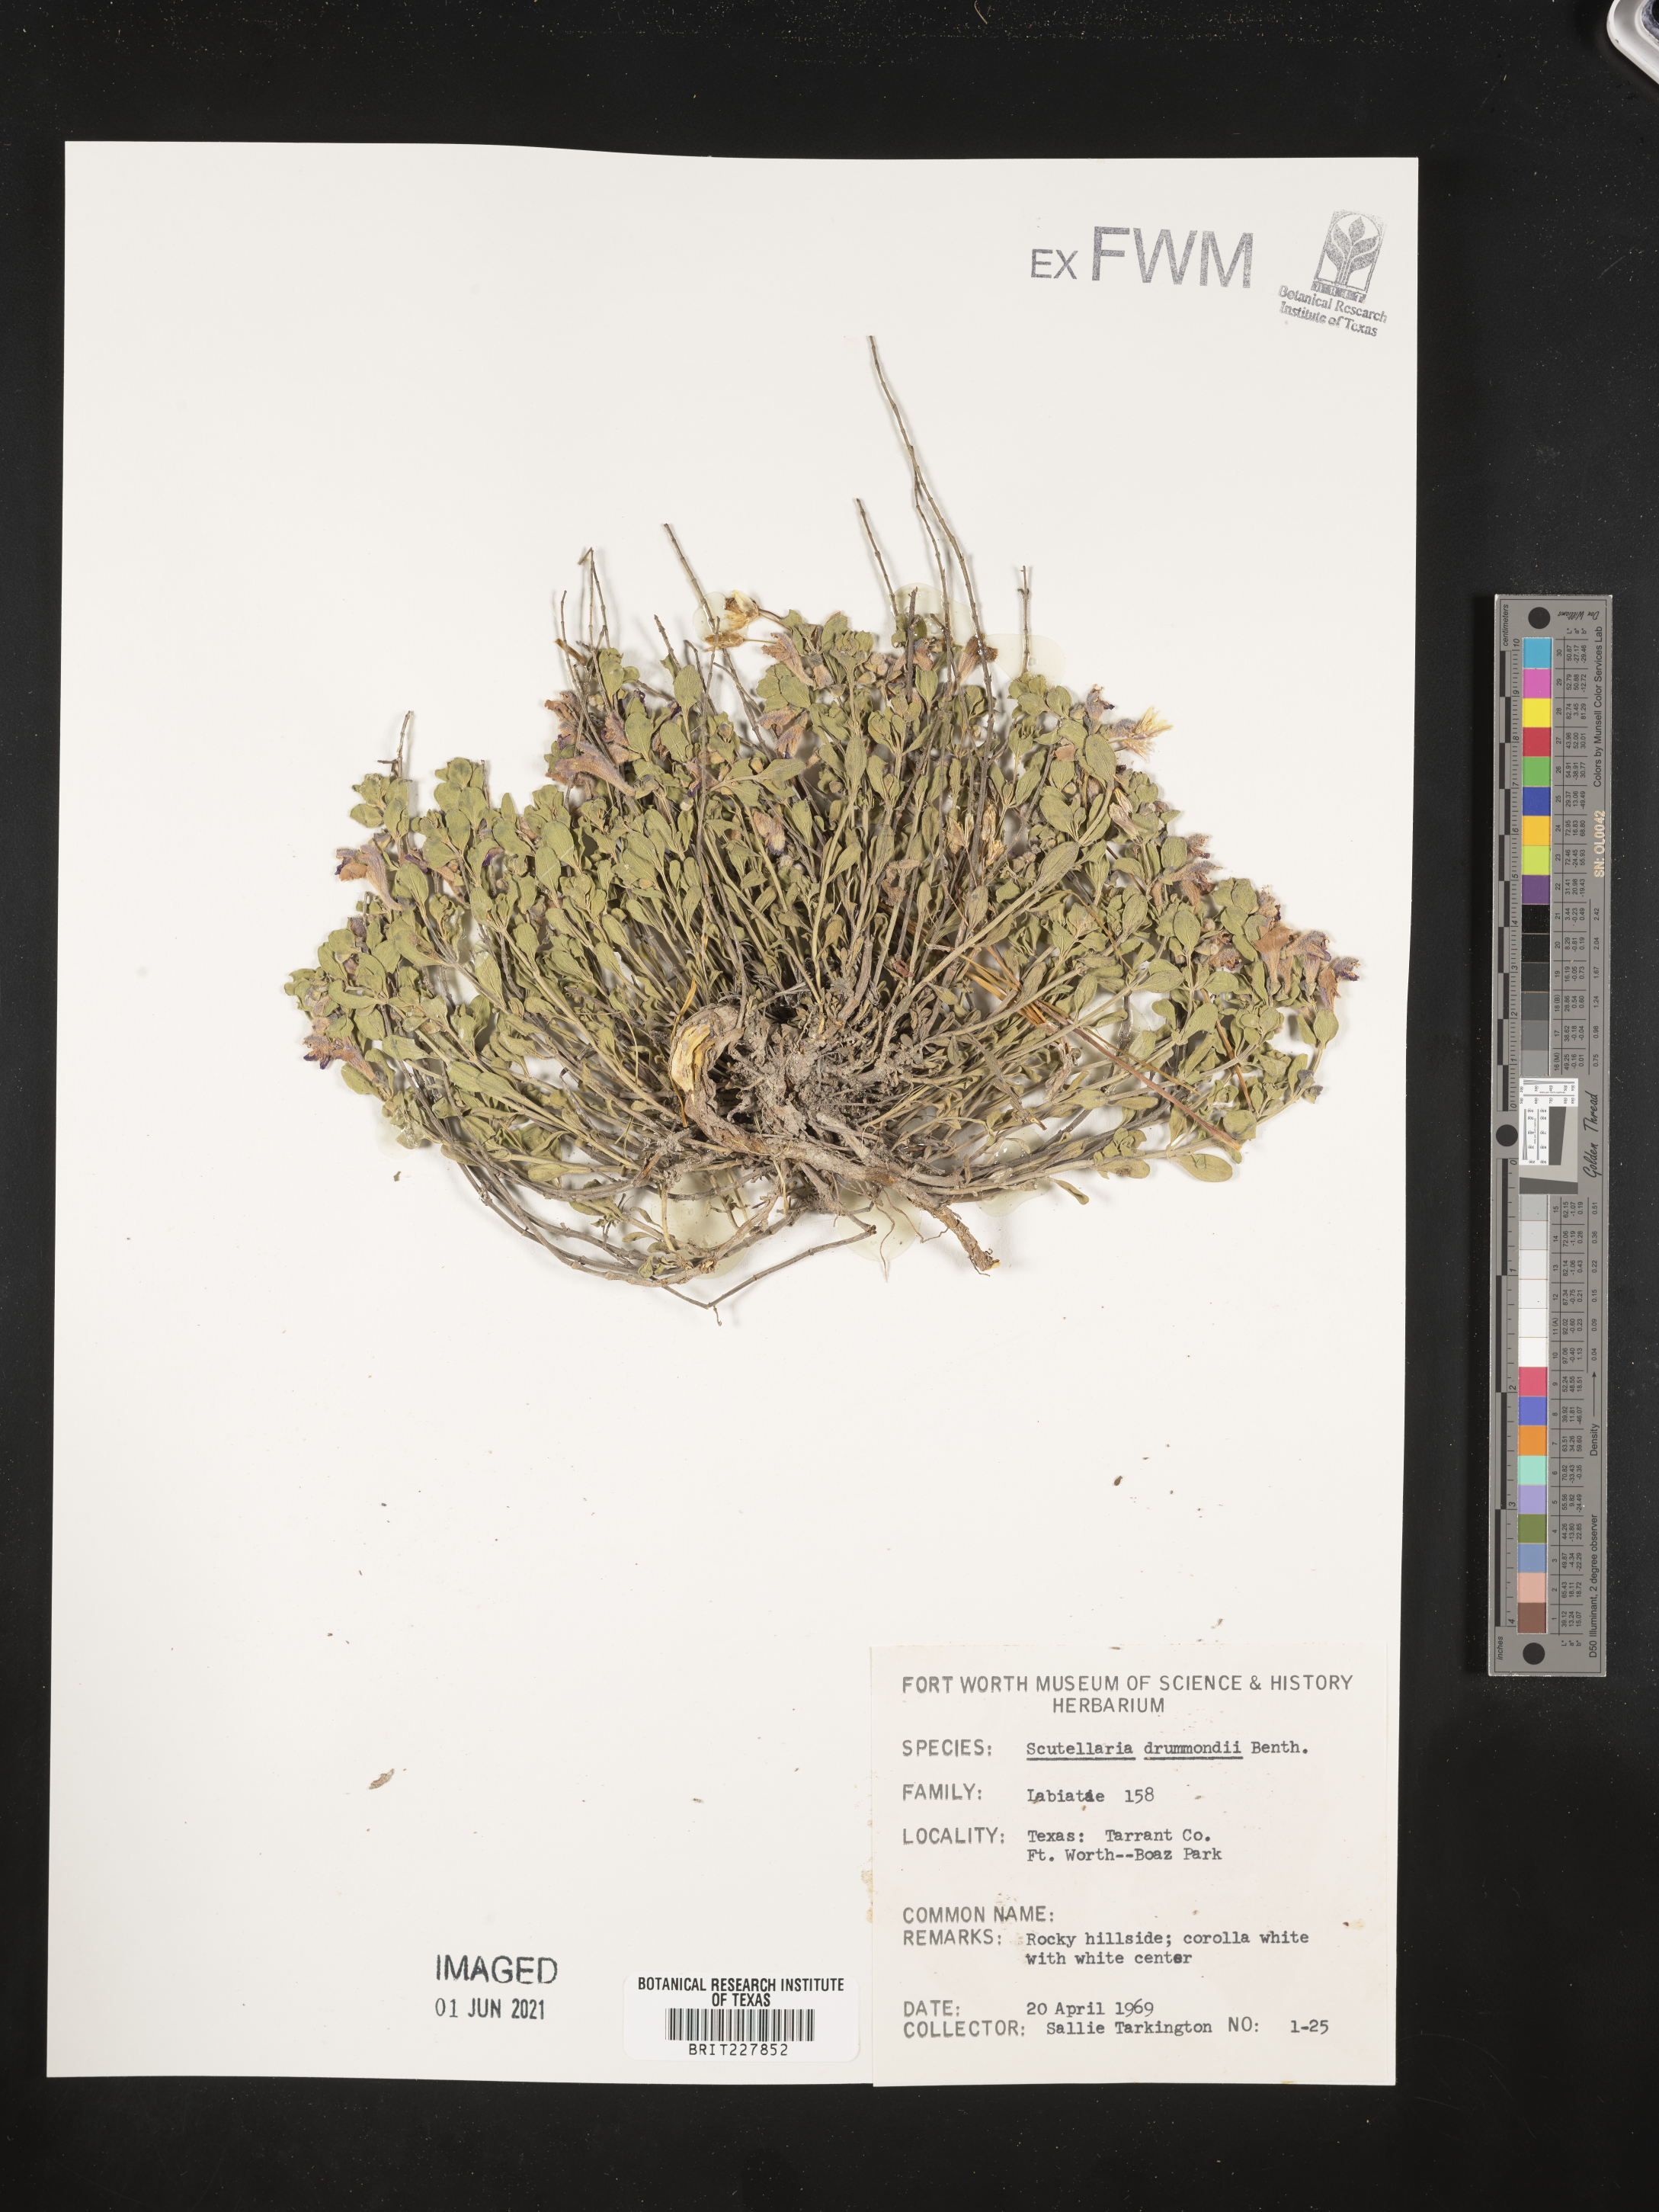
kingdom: Plantae
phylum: Tracheophyta
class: Magnoliopsida
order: Lamiales
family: Lamiaceae
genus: Scutellaria
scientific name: Scutellaria drummondii
